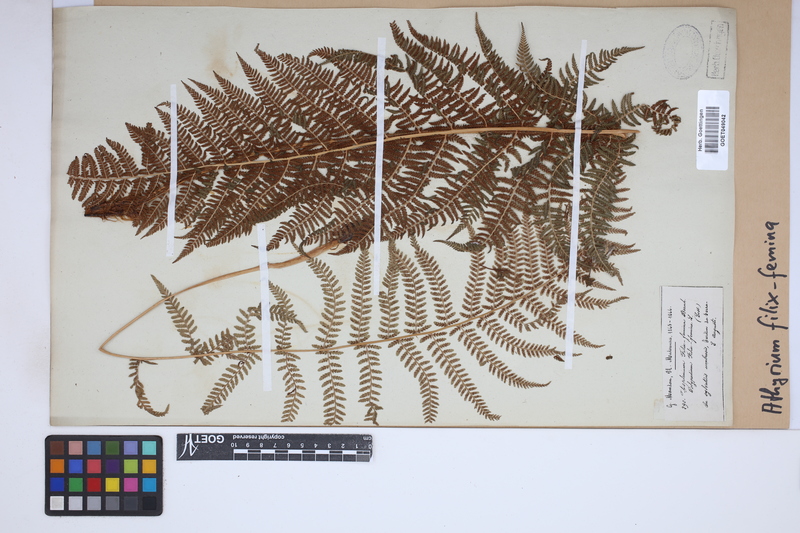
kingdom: Plantae
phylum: Tracheophyta
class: Polypodiopsida
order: Polypodiales
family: Athyriaceae
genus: Athyrium
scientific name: Athyrium filix-femina
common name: Lady fern
